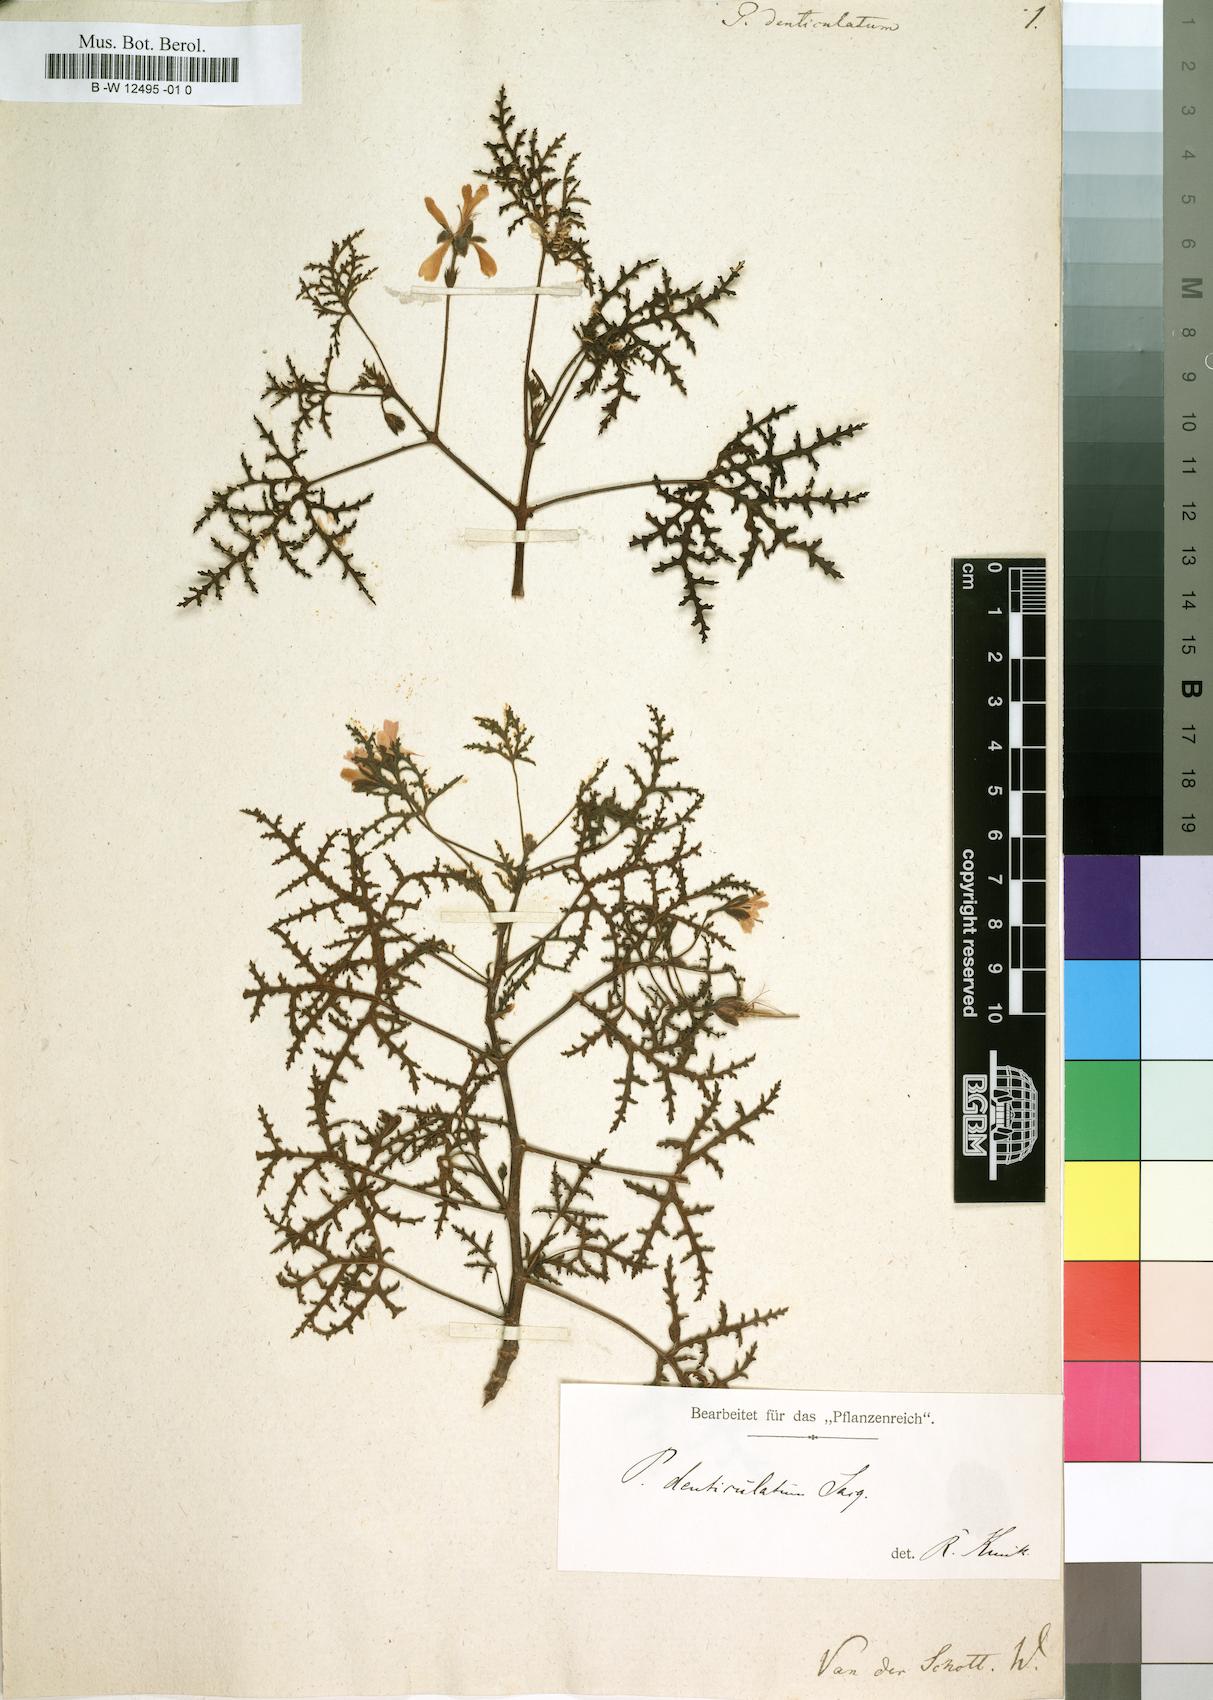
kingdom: Plantae
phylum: Tracheophyta
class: Magnoliopsida
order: Geraniales
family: Geraniaceae
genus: Pelargonium
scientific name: Pelargonium denticulatum
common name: Pine geranium
